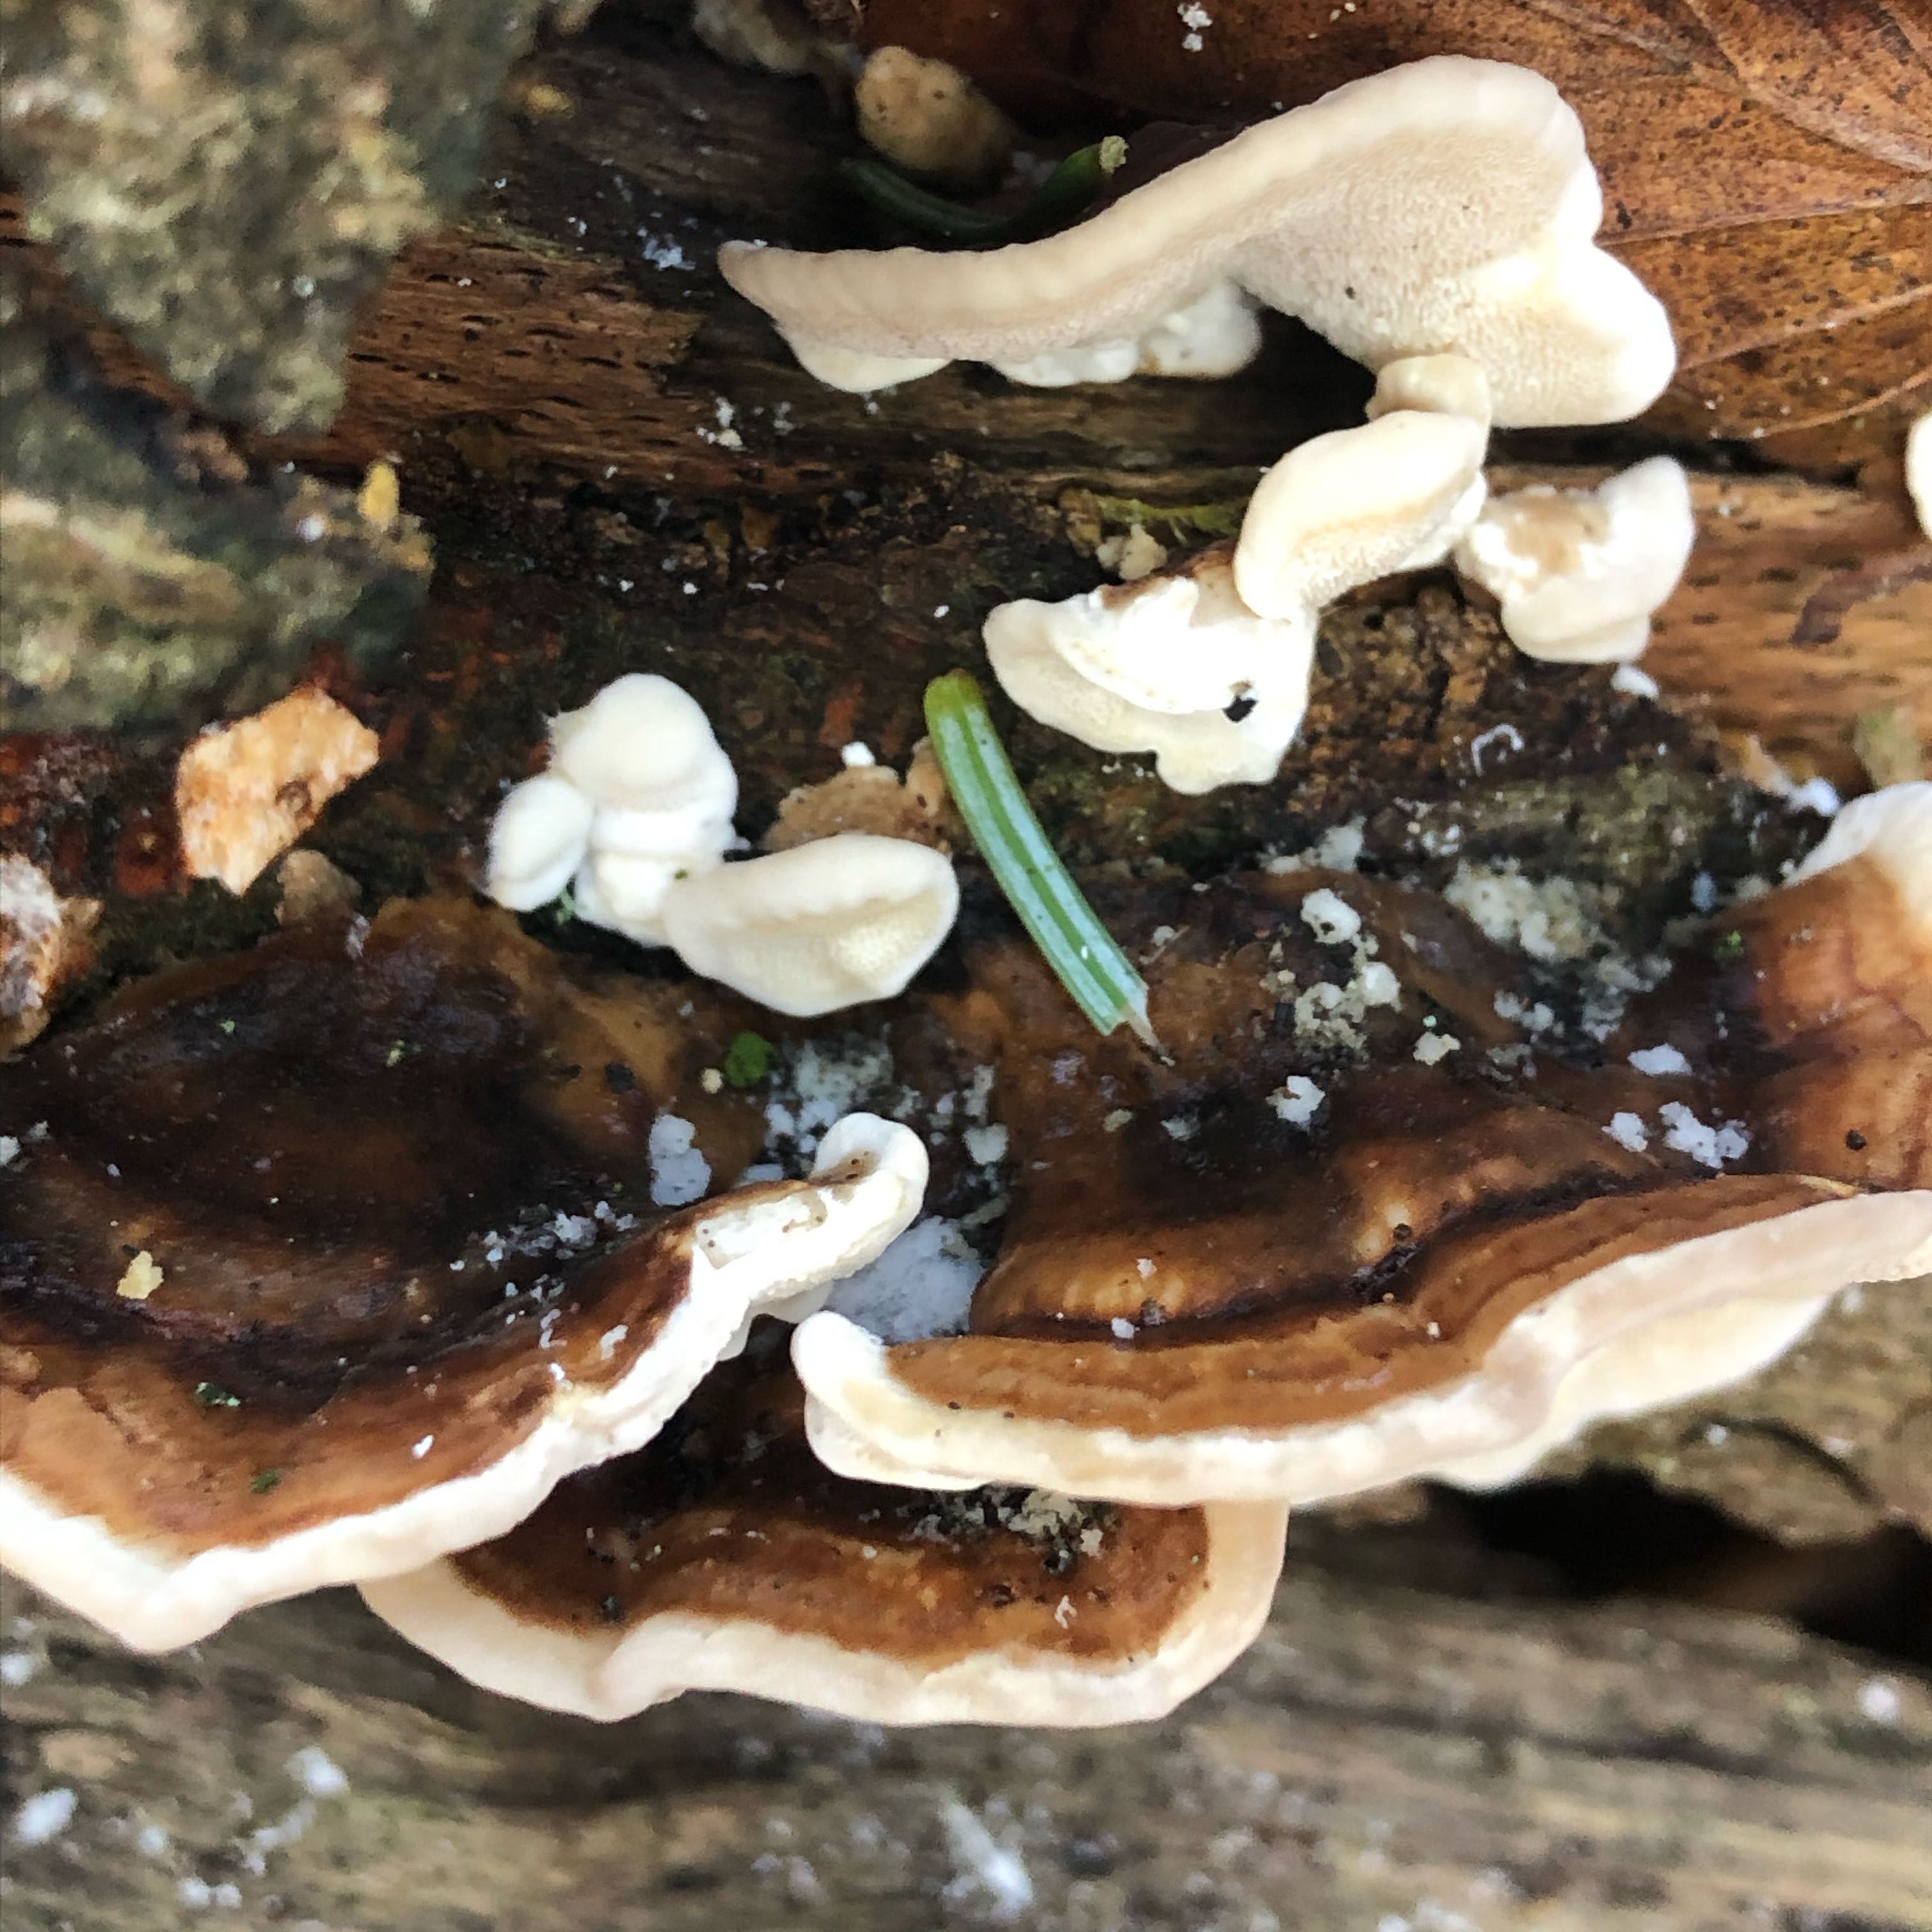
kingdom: Fungi
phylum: Basidiomycota
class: Agaricomycetes
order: Polyporales
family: Polyporaceae
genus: Trametes
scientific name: Trametes versicolor
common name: broget læderporesvamp
